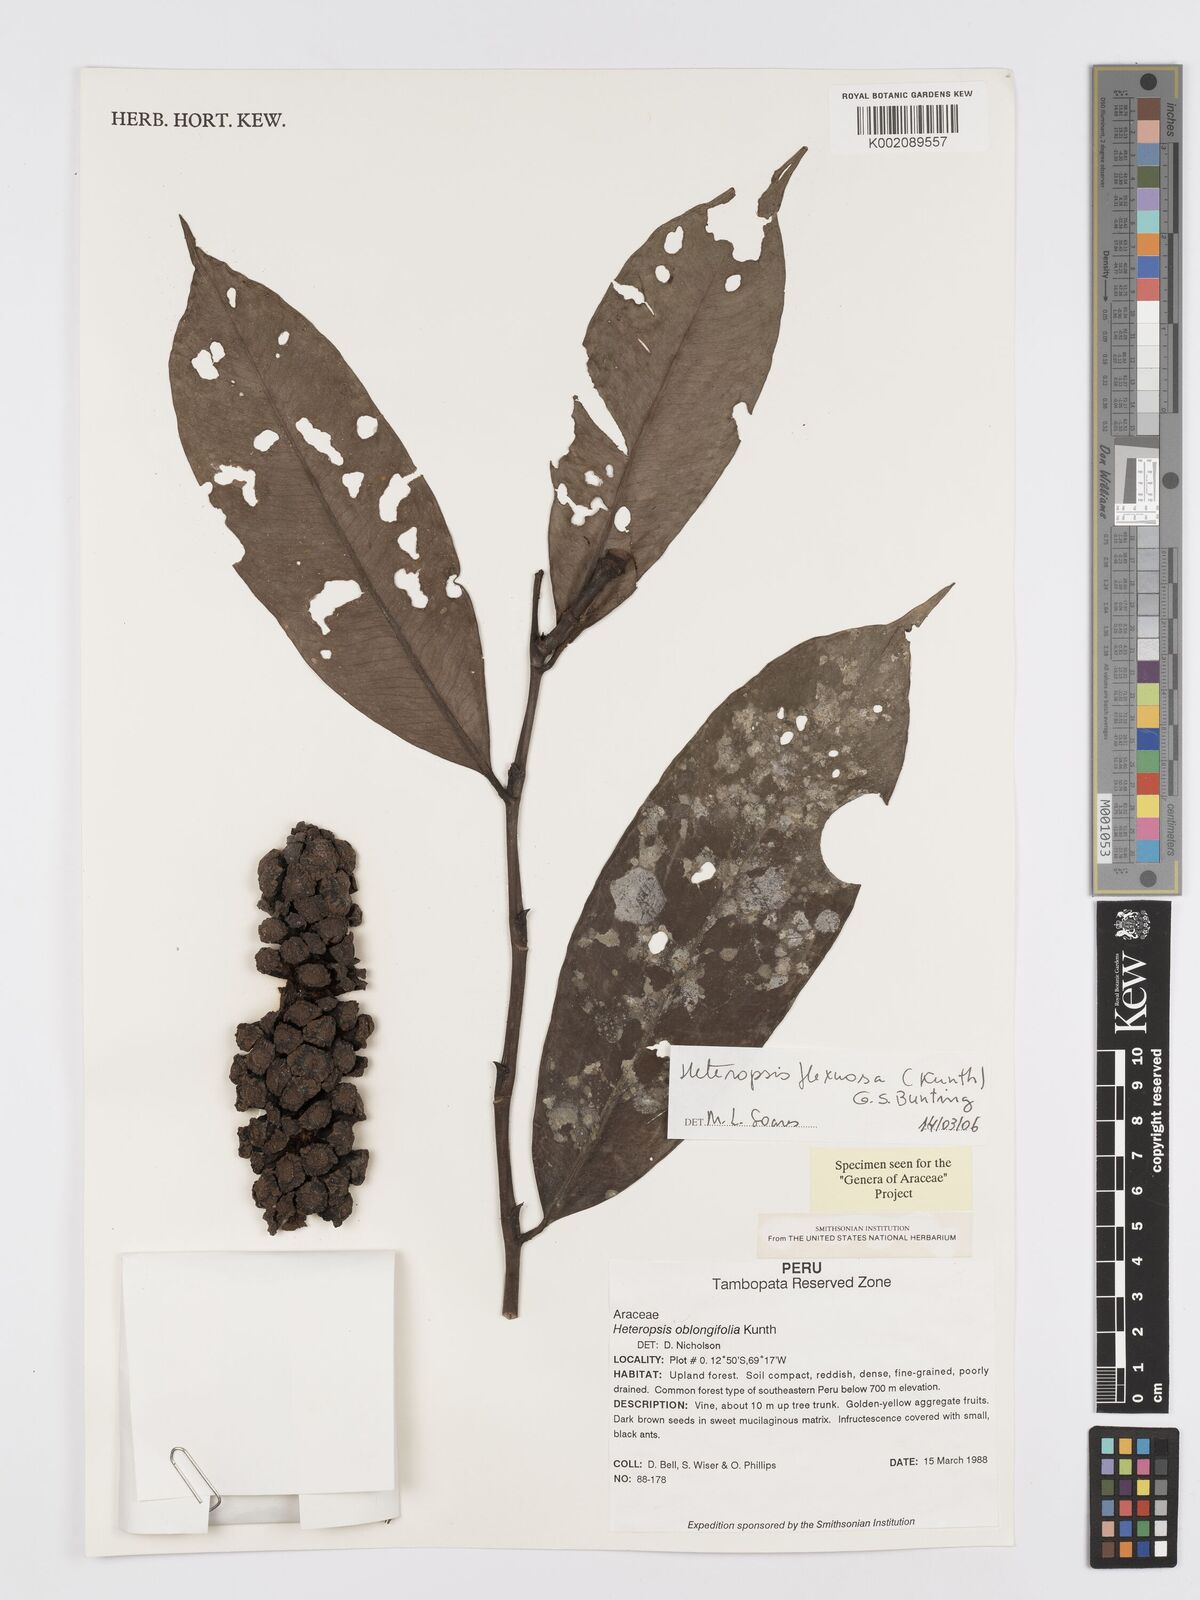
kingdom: Plantae
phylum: Tracheophyta
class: Liliopsida
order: Alismatales
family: Araceae
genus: Heteropsis
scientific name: Heteropsis flexuosa
